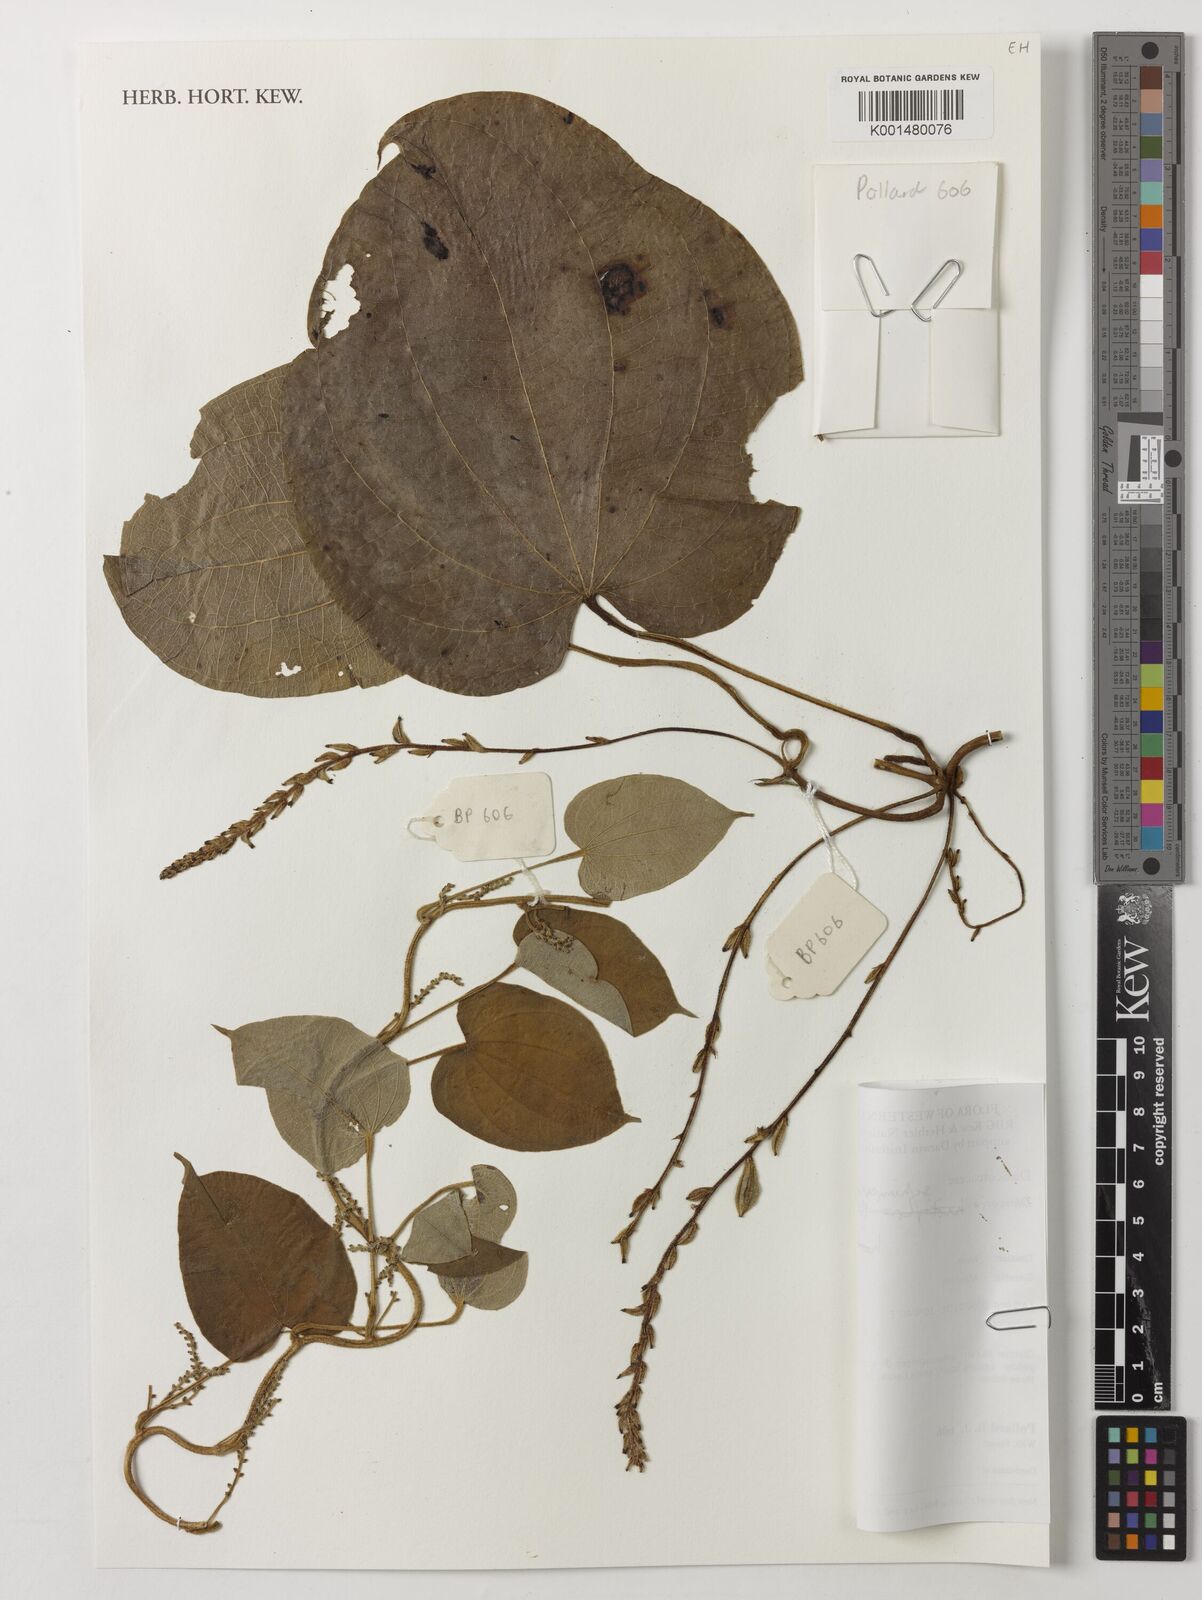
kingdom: Plantae
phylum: Tracheophyta
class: Liliopsida
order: Dioscoreales
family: Dioscoreaceae
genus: Dioscorea
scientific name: Dioscorea schimperiana
